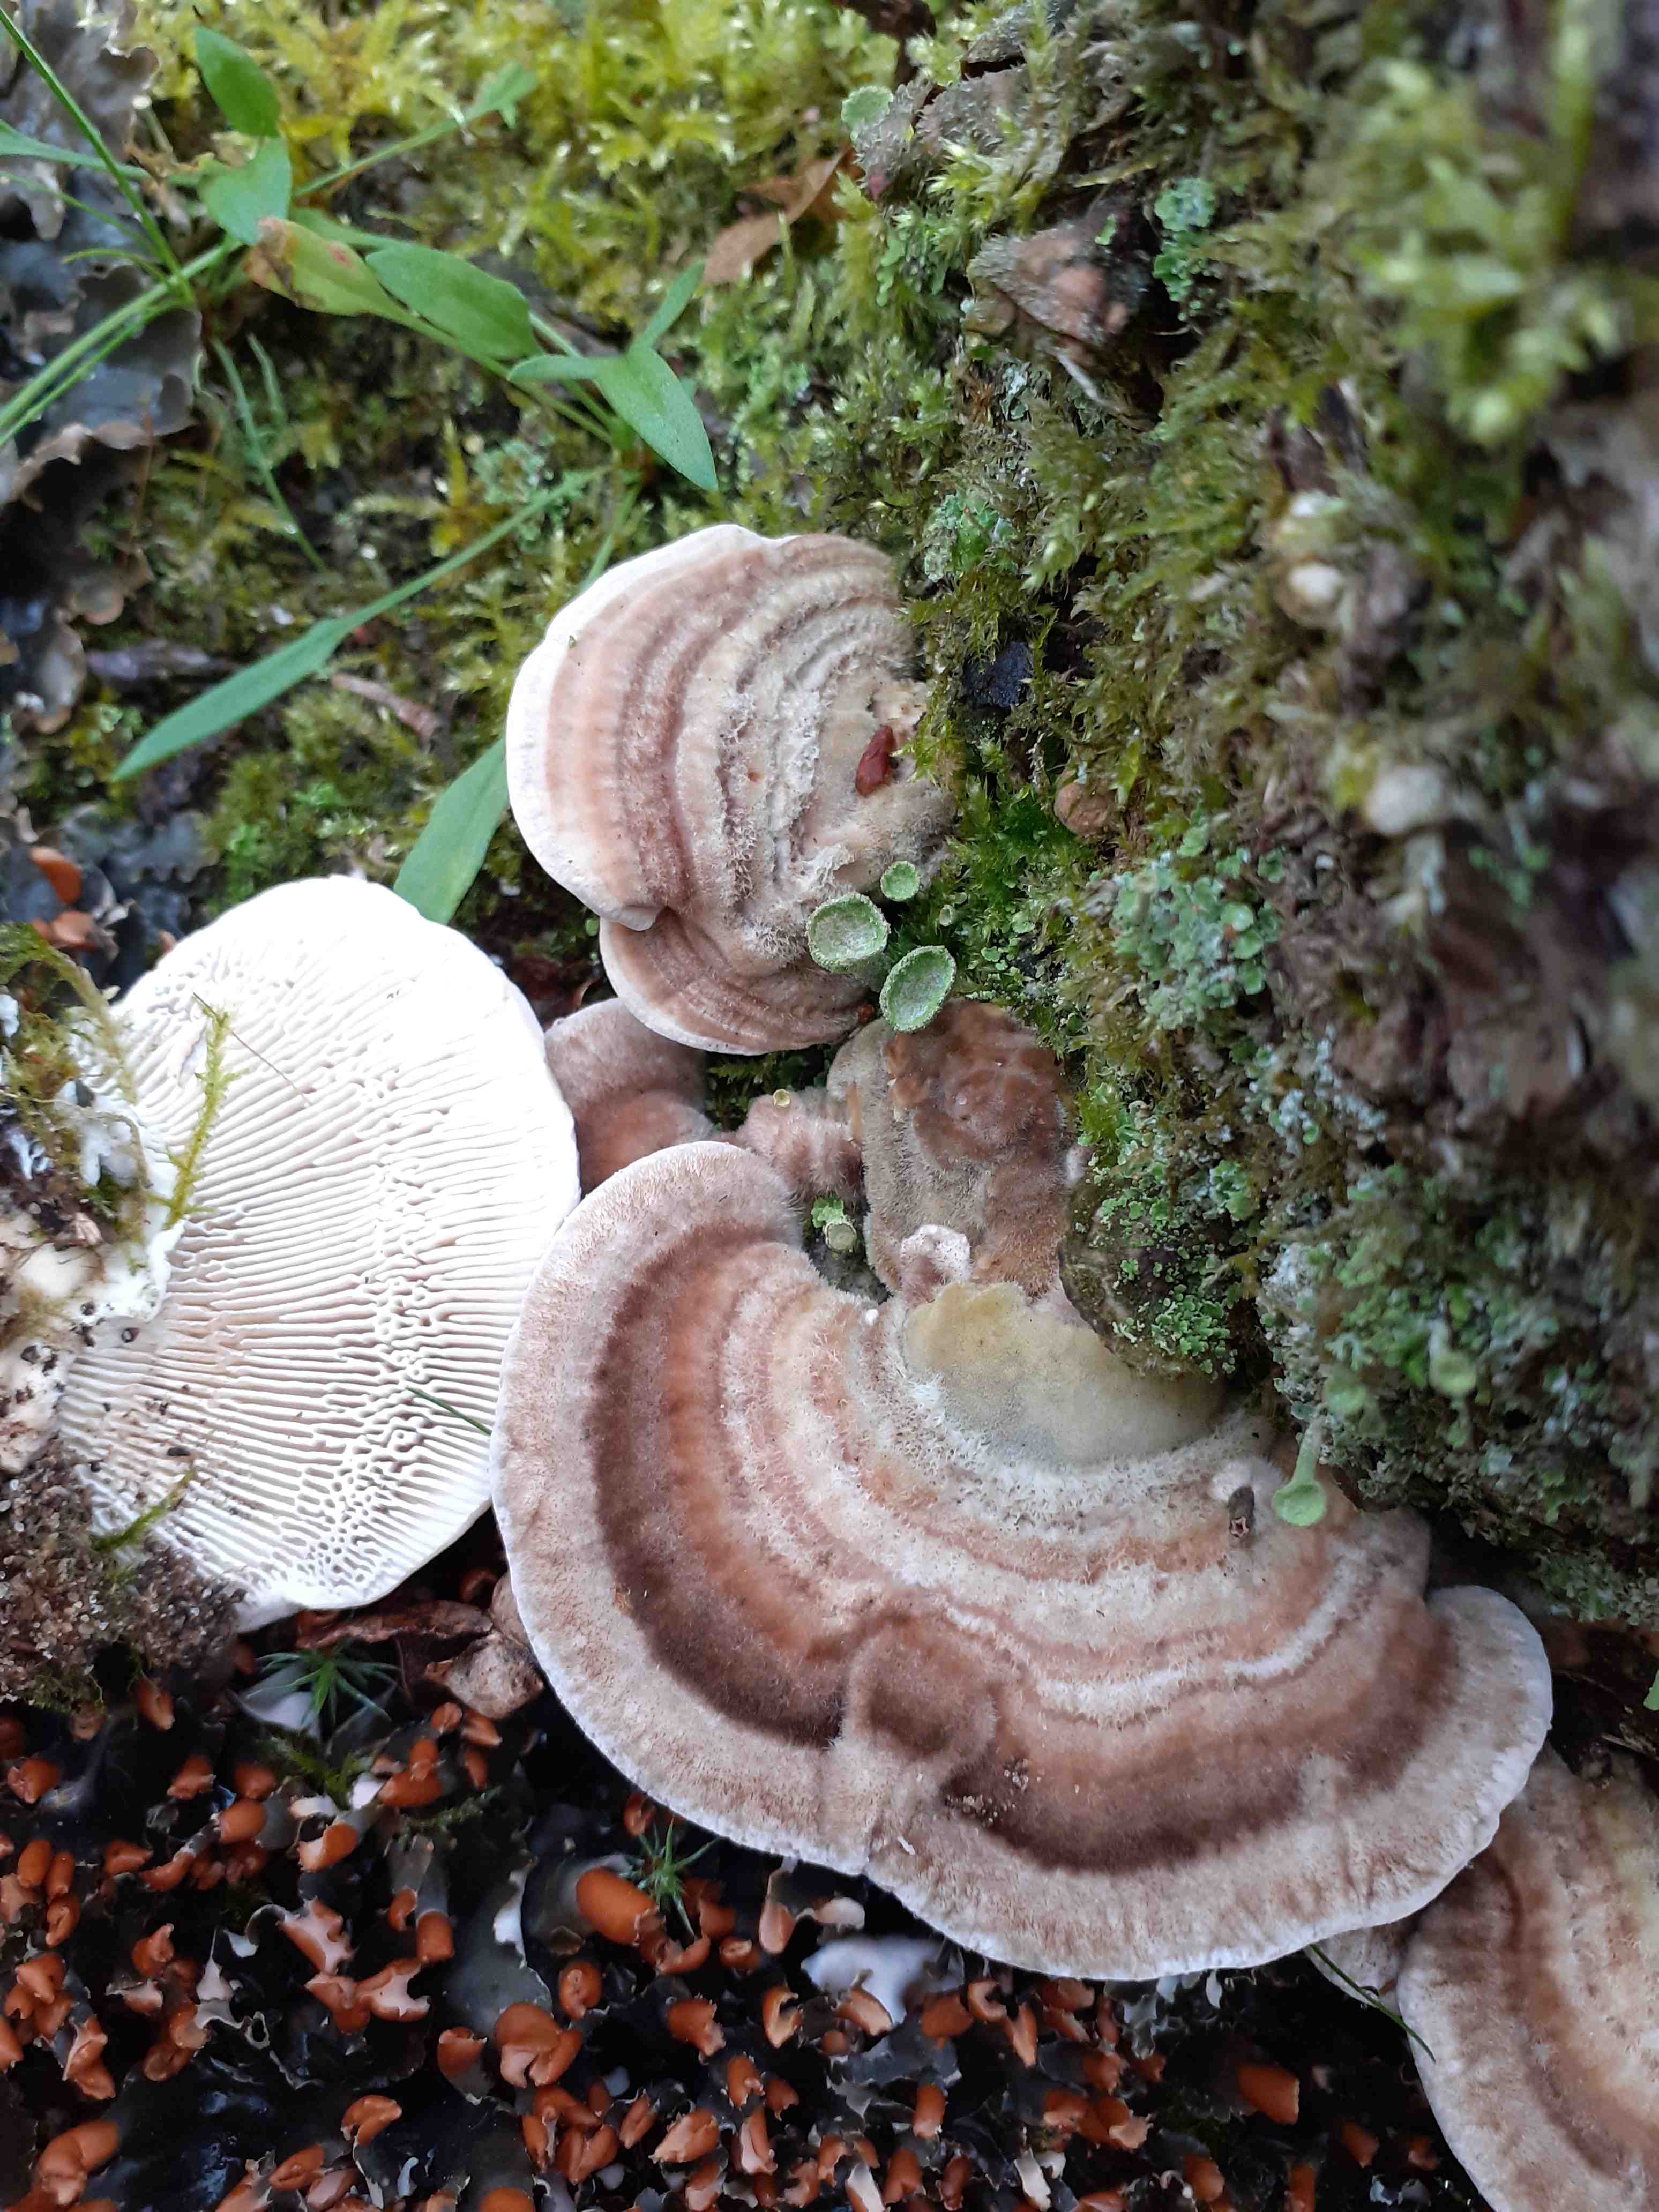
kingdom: Fungi
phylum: Basidiomycota
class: Agaricomycetes
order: Polyporales
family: Fomitopsidaceae
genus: Daedalea
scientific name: Daedalea quercina
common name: ege-labyrintsvamp
